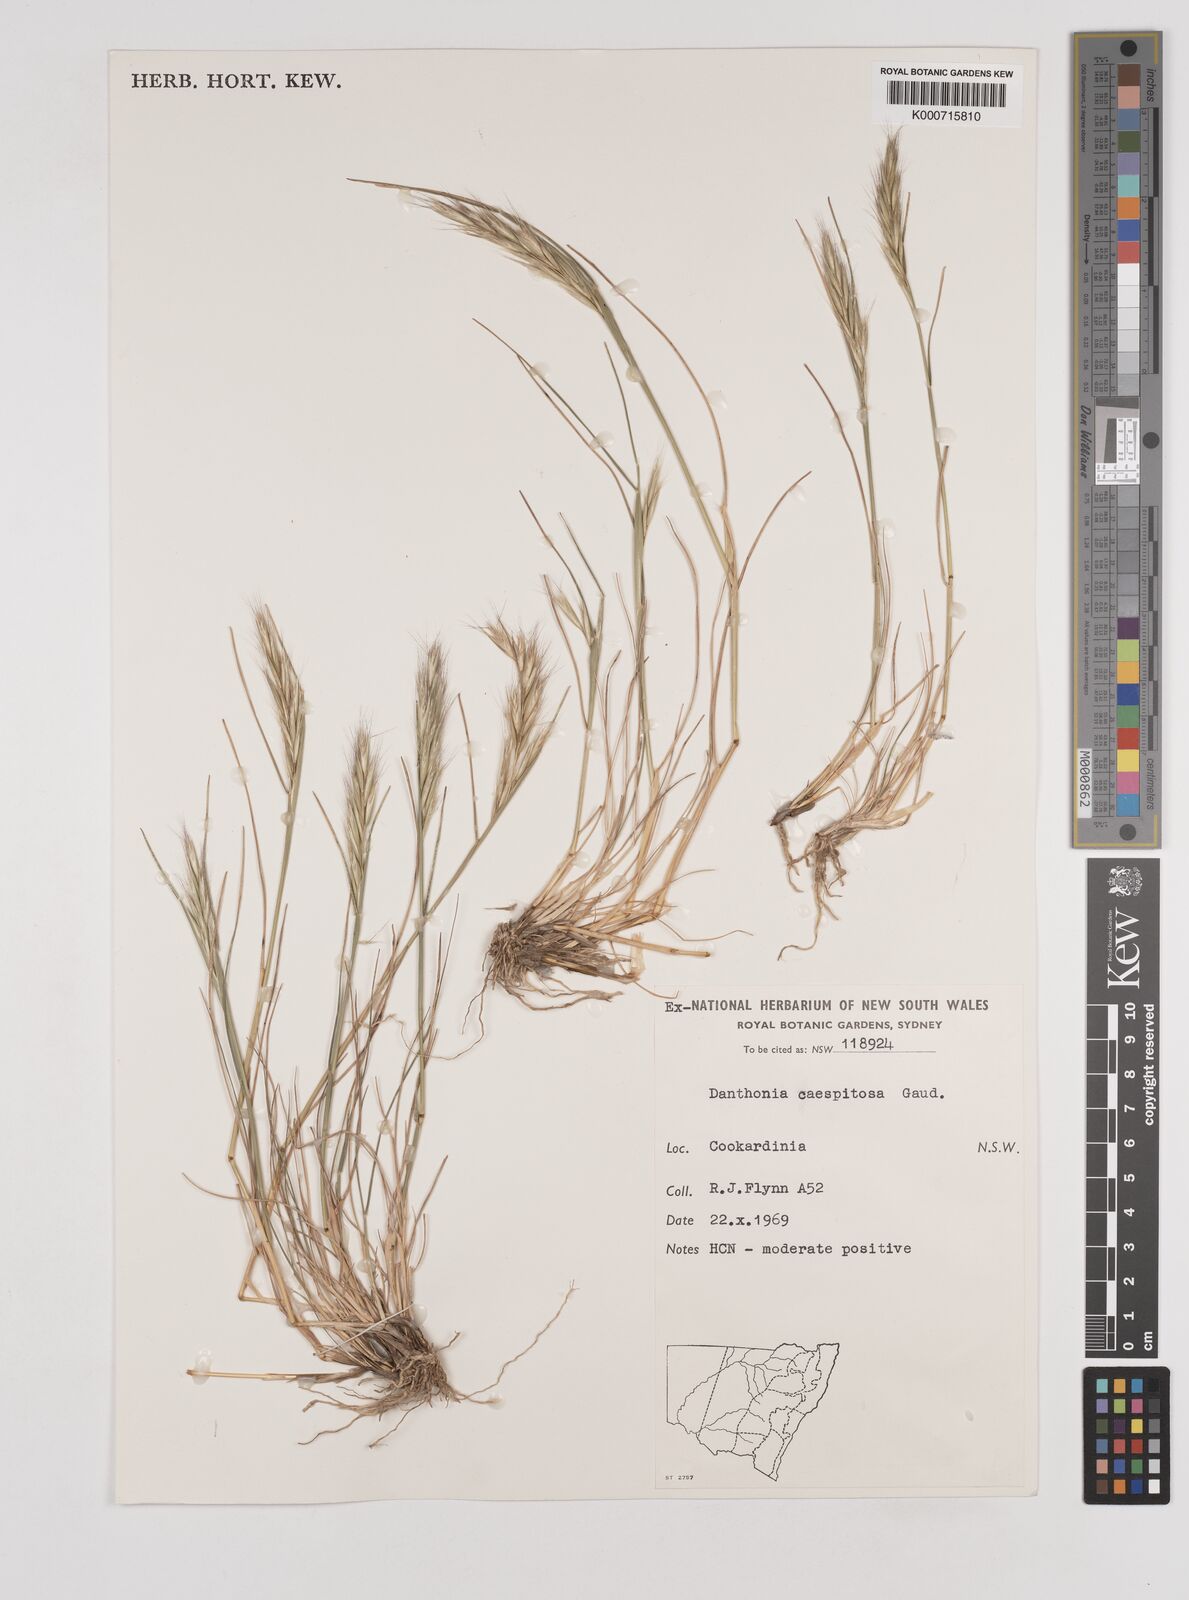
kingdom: Plantae
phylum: Tracheophyta
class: Liliopsida
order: Poales
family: Poaceae
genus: Rytidosperma
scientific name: Rytidosperma caespitosum
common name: Tufted wallaby grass
